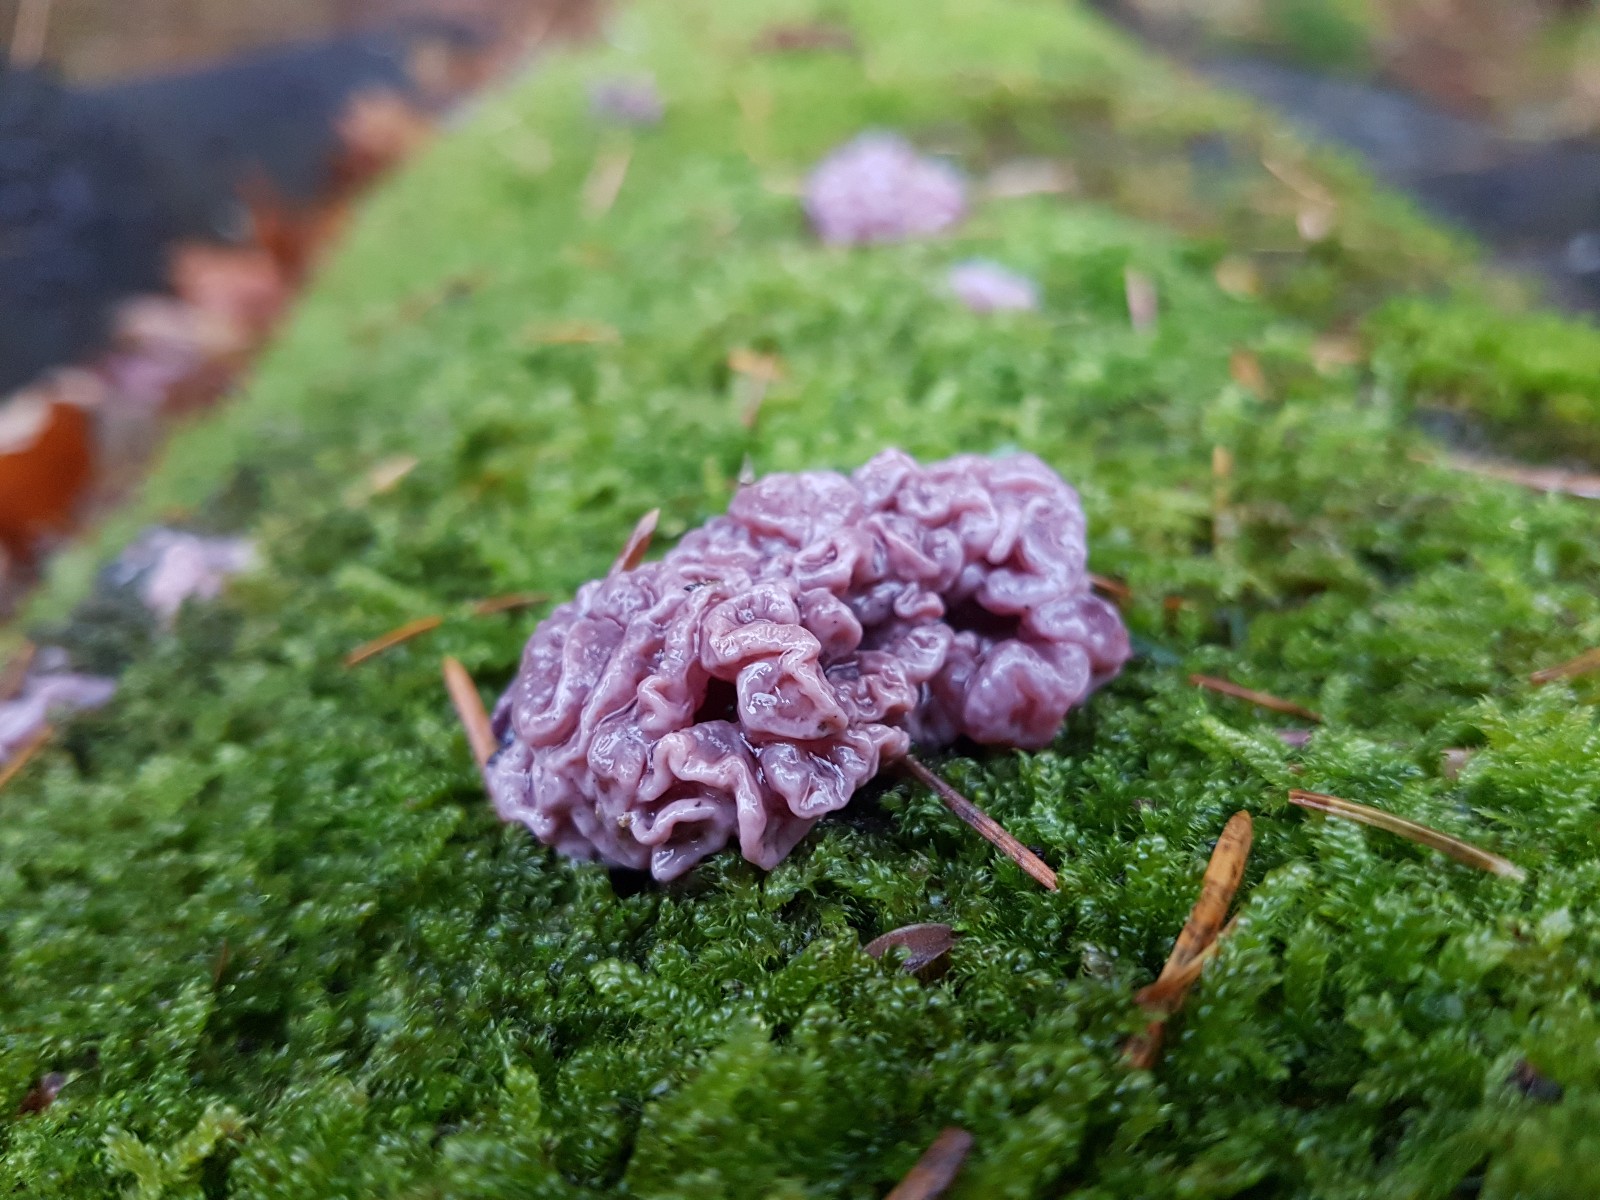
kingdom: Fungi
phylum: Ascomycota
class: Leotiomycetes
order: Helotiales
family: Gelatinodiscaceae
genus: Ascocoryne
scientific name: Ascocoryne sarcoides
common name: rødlilla sejskive
